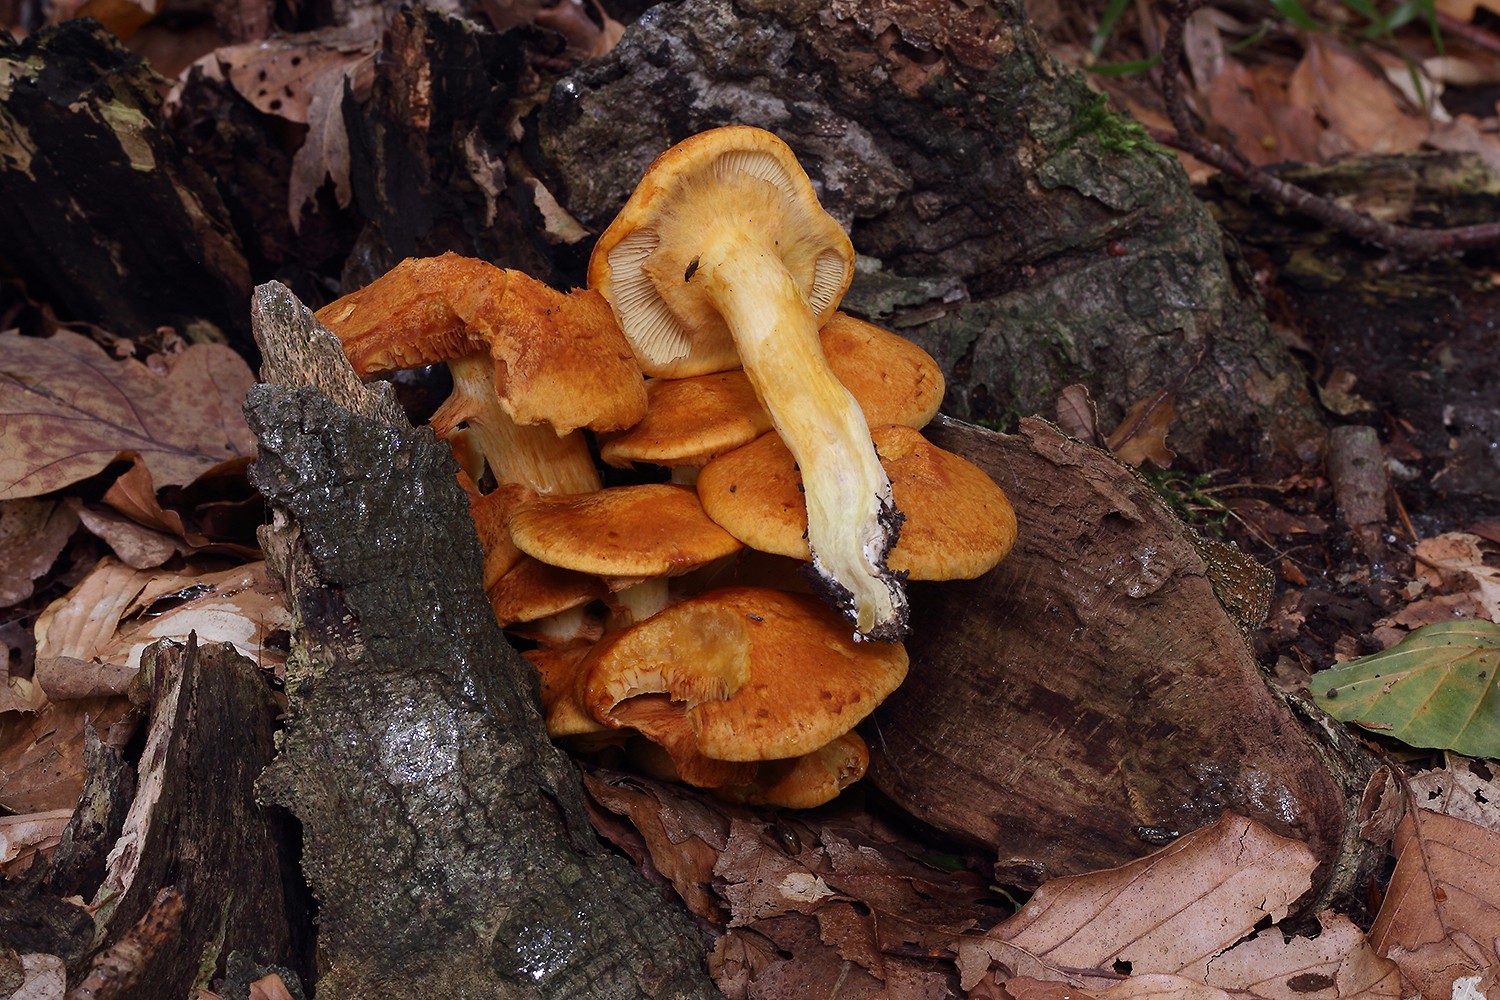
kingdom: Fungi
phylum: Basidiomycota
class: Agaricomycetes
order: Agaricales
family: Hymenogastraceae
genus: Gymnopilus
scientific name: Gymnopilus spectabilis
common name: fibret flammehat
